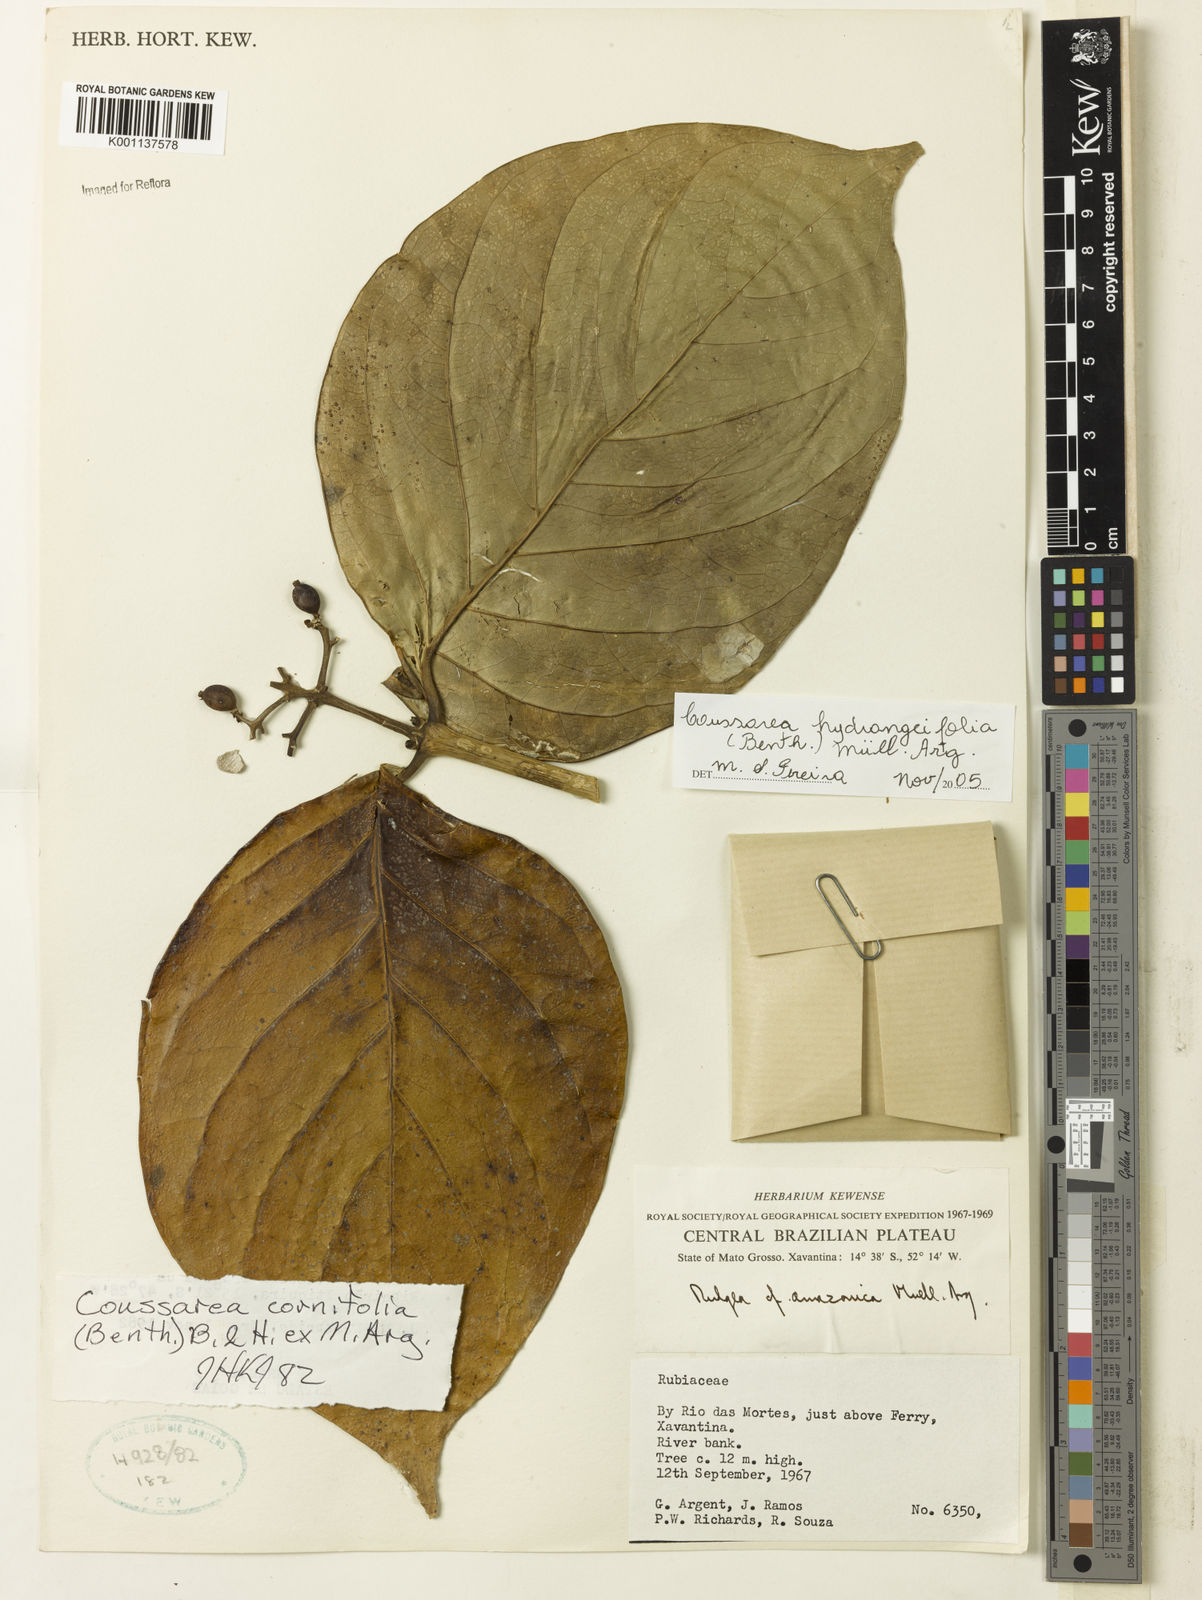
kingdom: Plantae
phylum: Tracheophyta
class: Magnoliopsida
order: Gentianales
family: Rubiaceae
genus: Coussarea
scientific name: Coussarea
